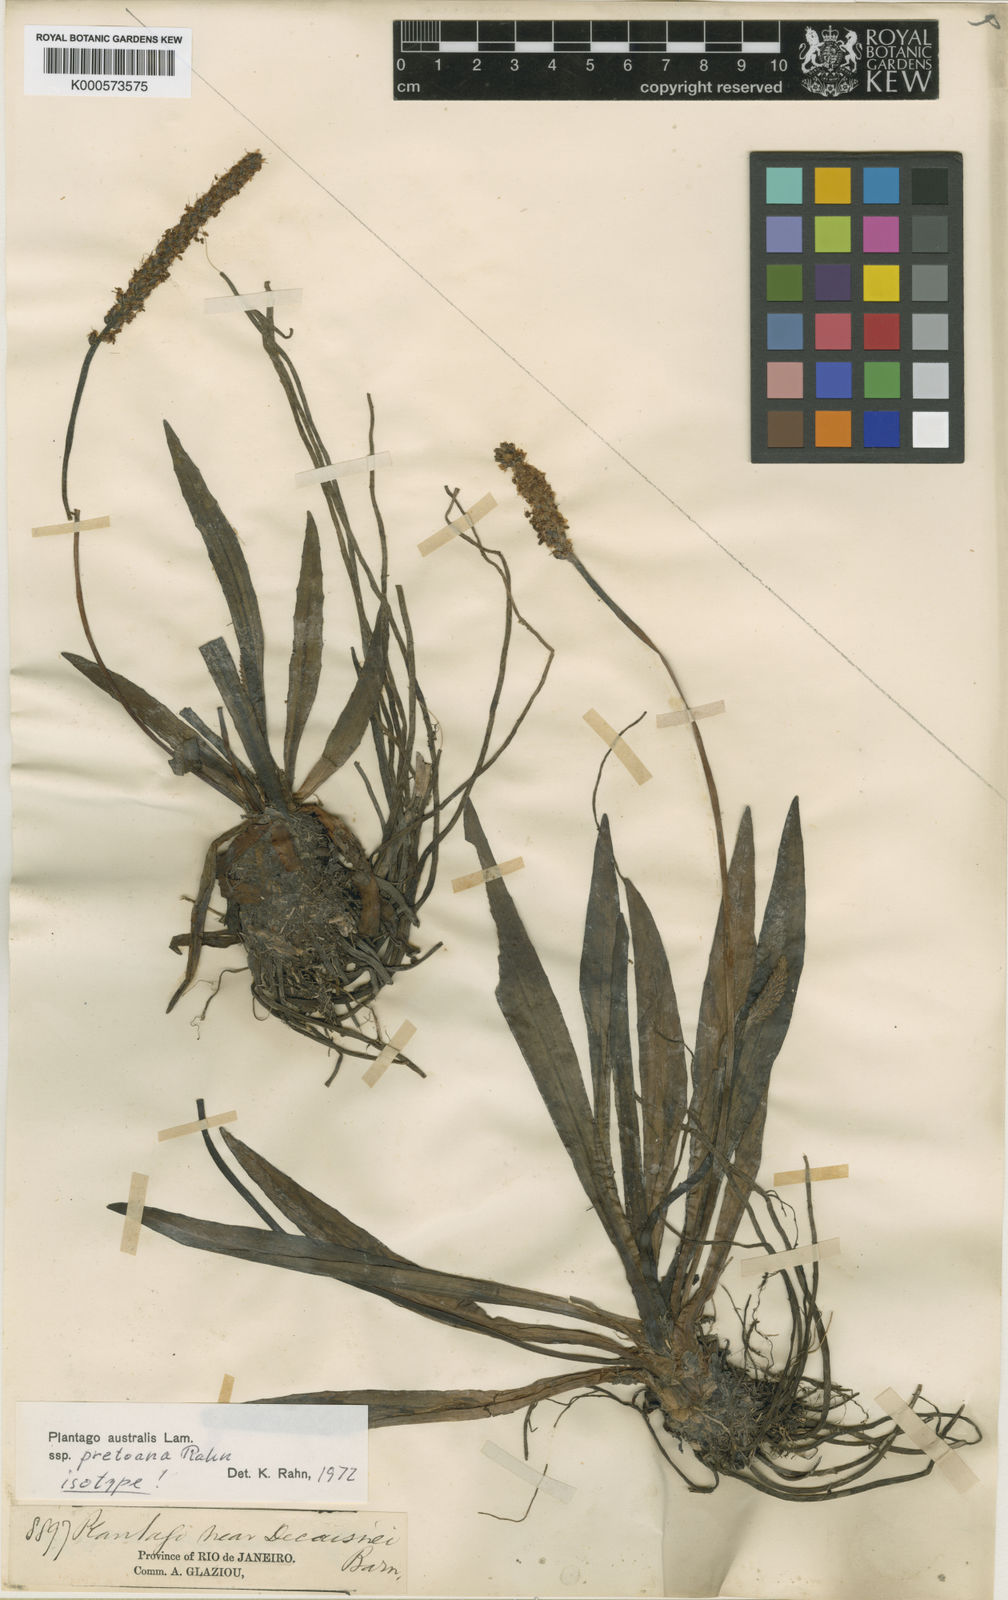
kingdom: Plantae
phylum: Tracheophyta
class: Magnoliopsida
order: Lamiales
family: Plantaginaceae
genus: Plantago
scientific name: Plantago pretoana
